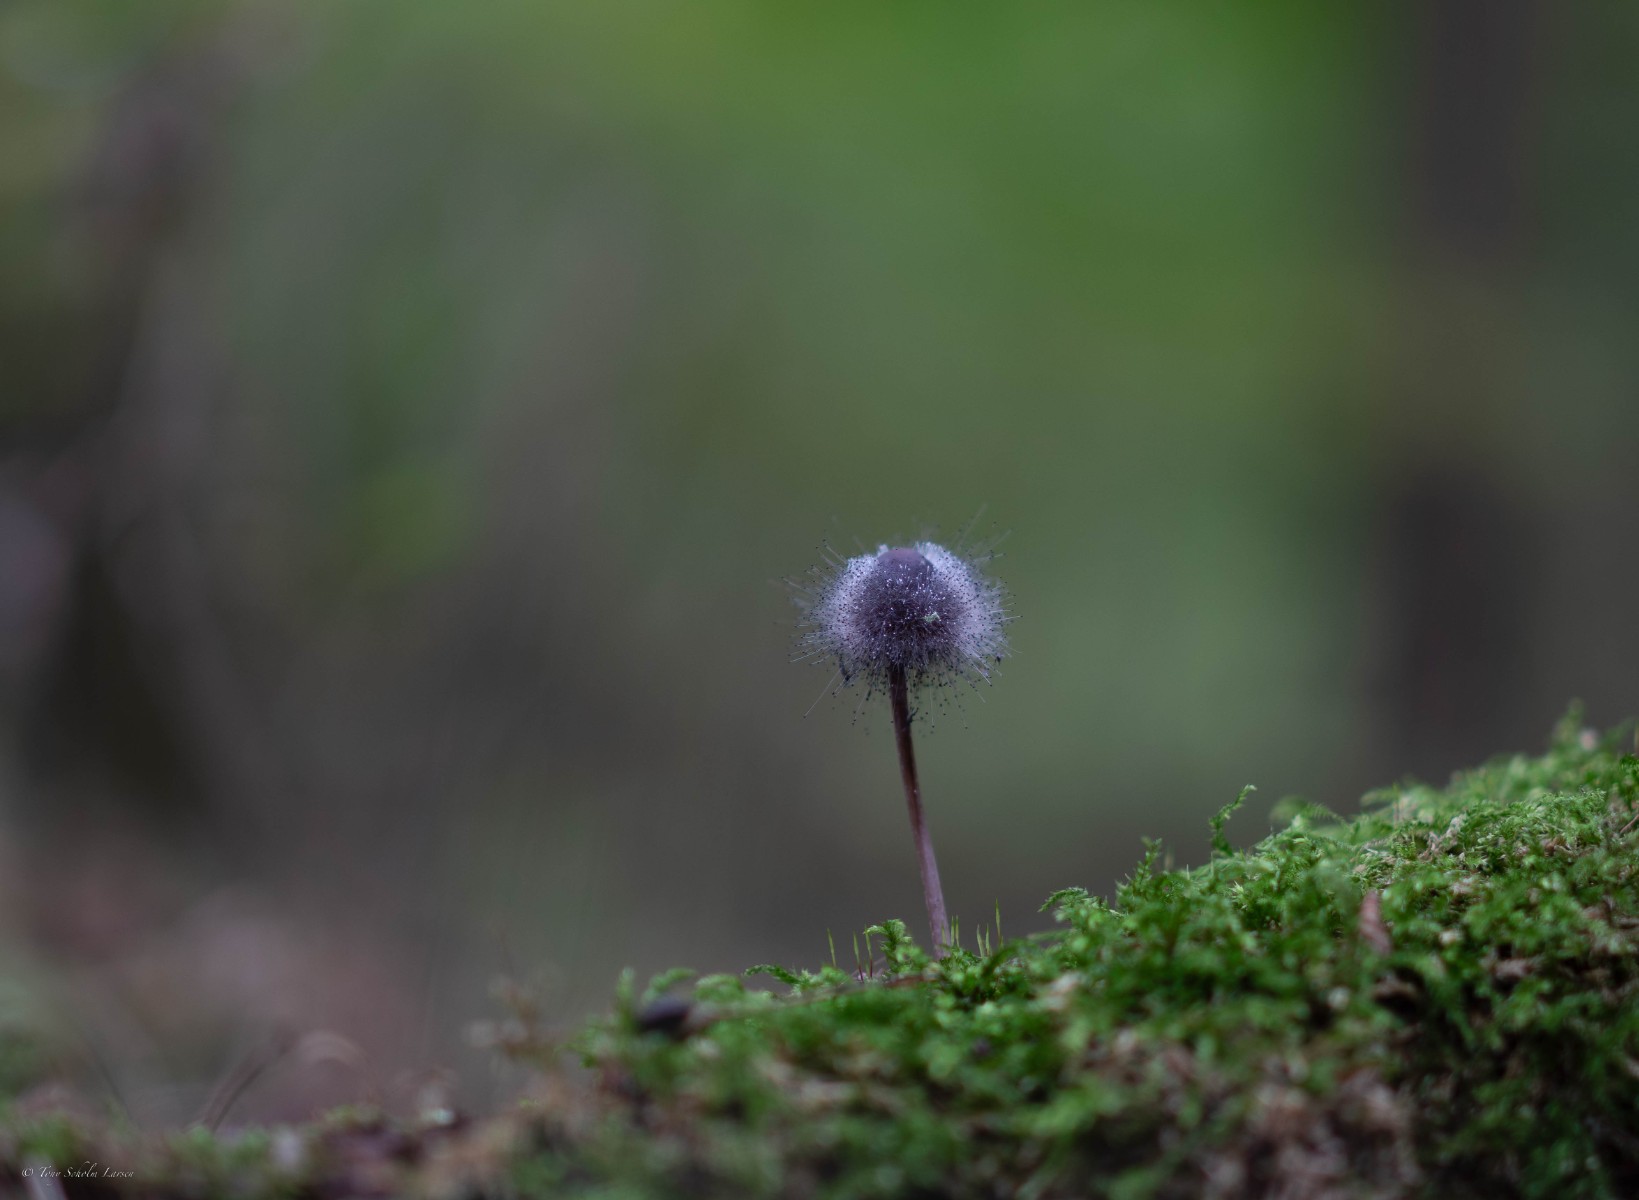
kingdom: Fungi
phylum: Mucoromycota
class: Mucoromycetes
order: Mucorales
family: Phycomycetaceae
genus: Spinellus
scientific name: Spinellus fusiger
